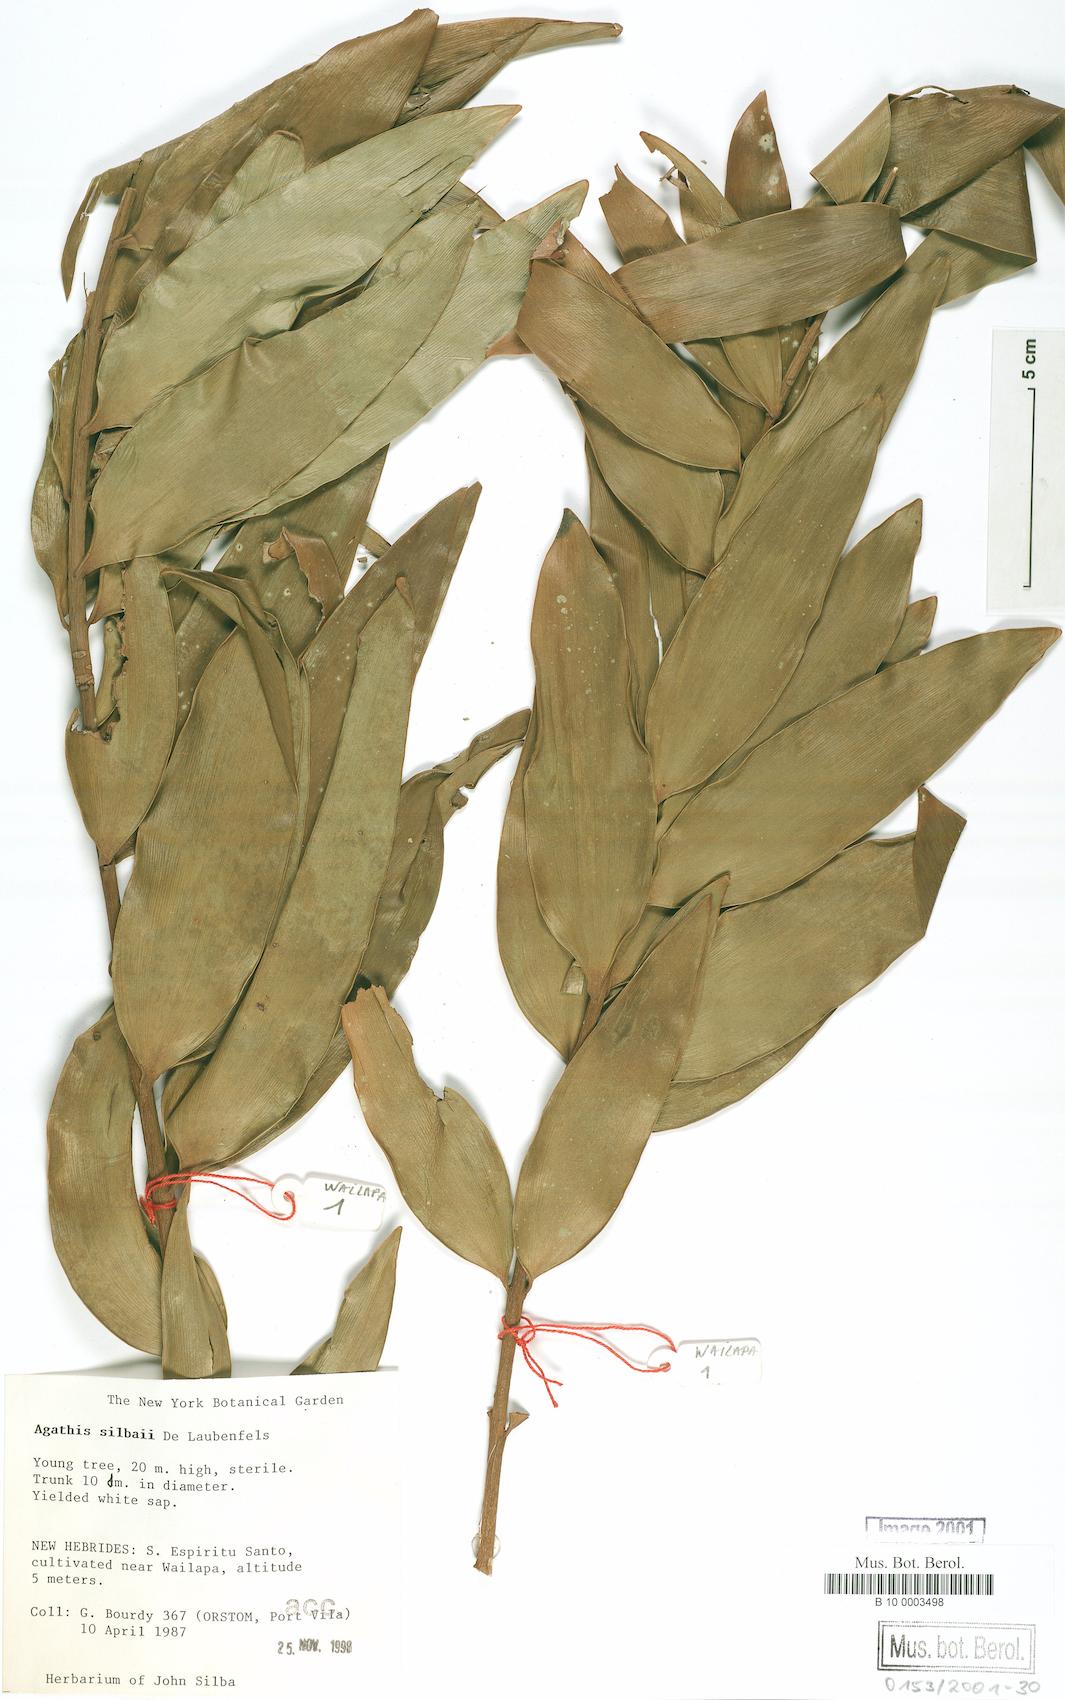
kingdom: Plantae
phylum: Tracheophyta
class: Pinopsida
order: Pinales
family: Araucariaceae
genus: Agathis
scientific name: Agathis silbae
